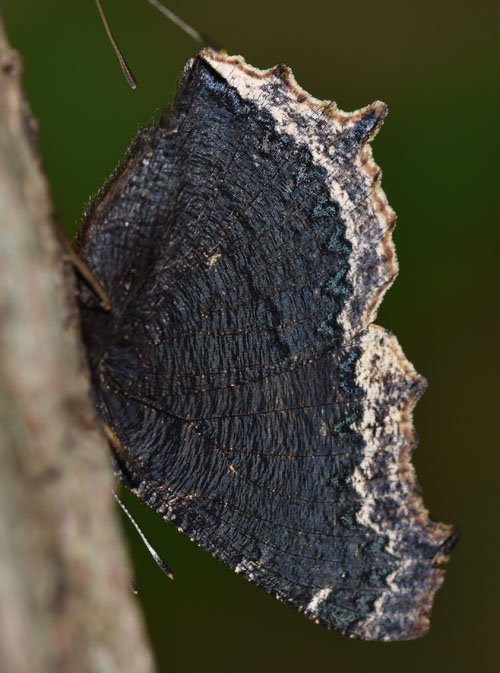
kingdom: Animalia
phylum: Arthropoda
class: Insecta
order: Lepidoptera
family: Nymphalidae
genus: Nymphalis
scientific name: Nymphalis antiopa
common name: Mourning Cloak
